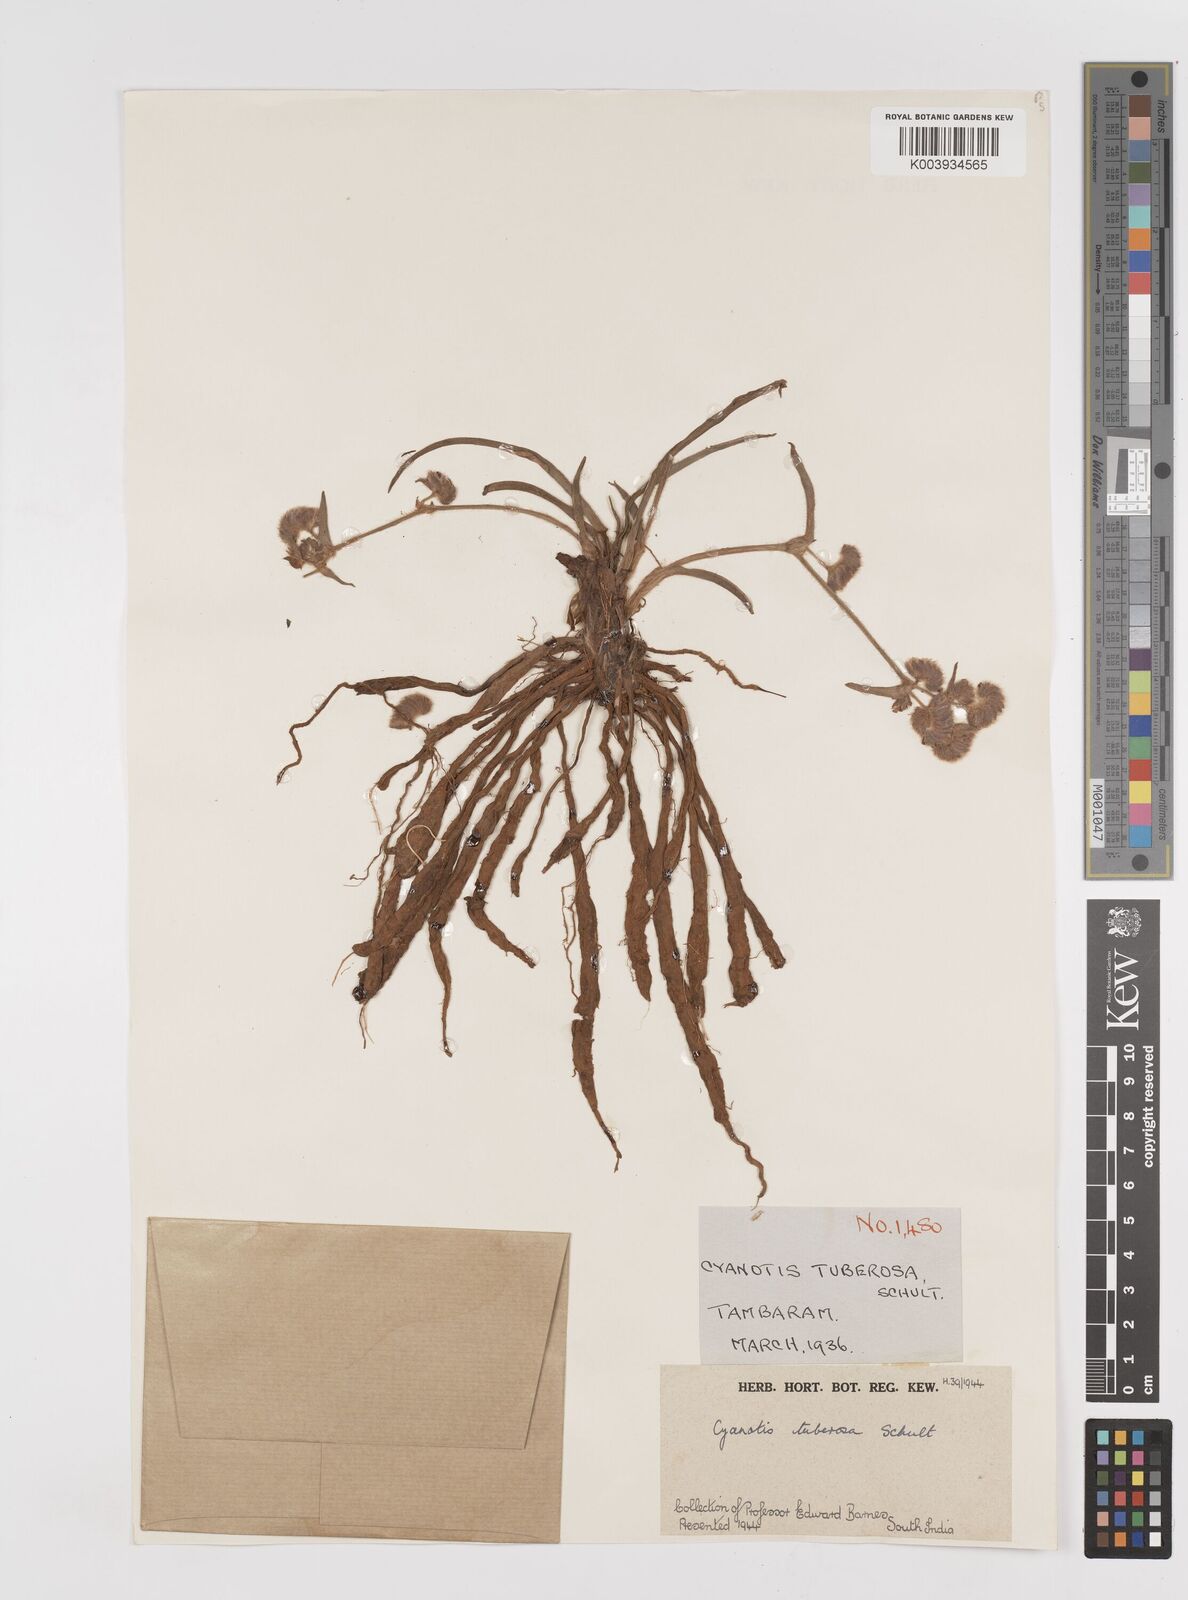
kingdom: Plantae
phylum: Tracheophyta
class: Liliopsida
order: Commelinales
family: Commelinaceae
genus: Cyanotis
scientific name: Cyanotis tuberosa
